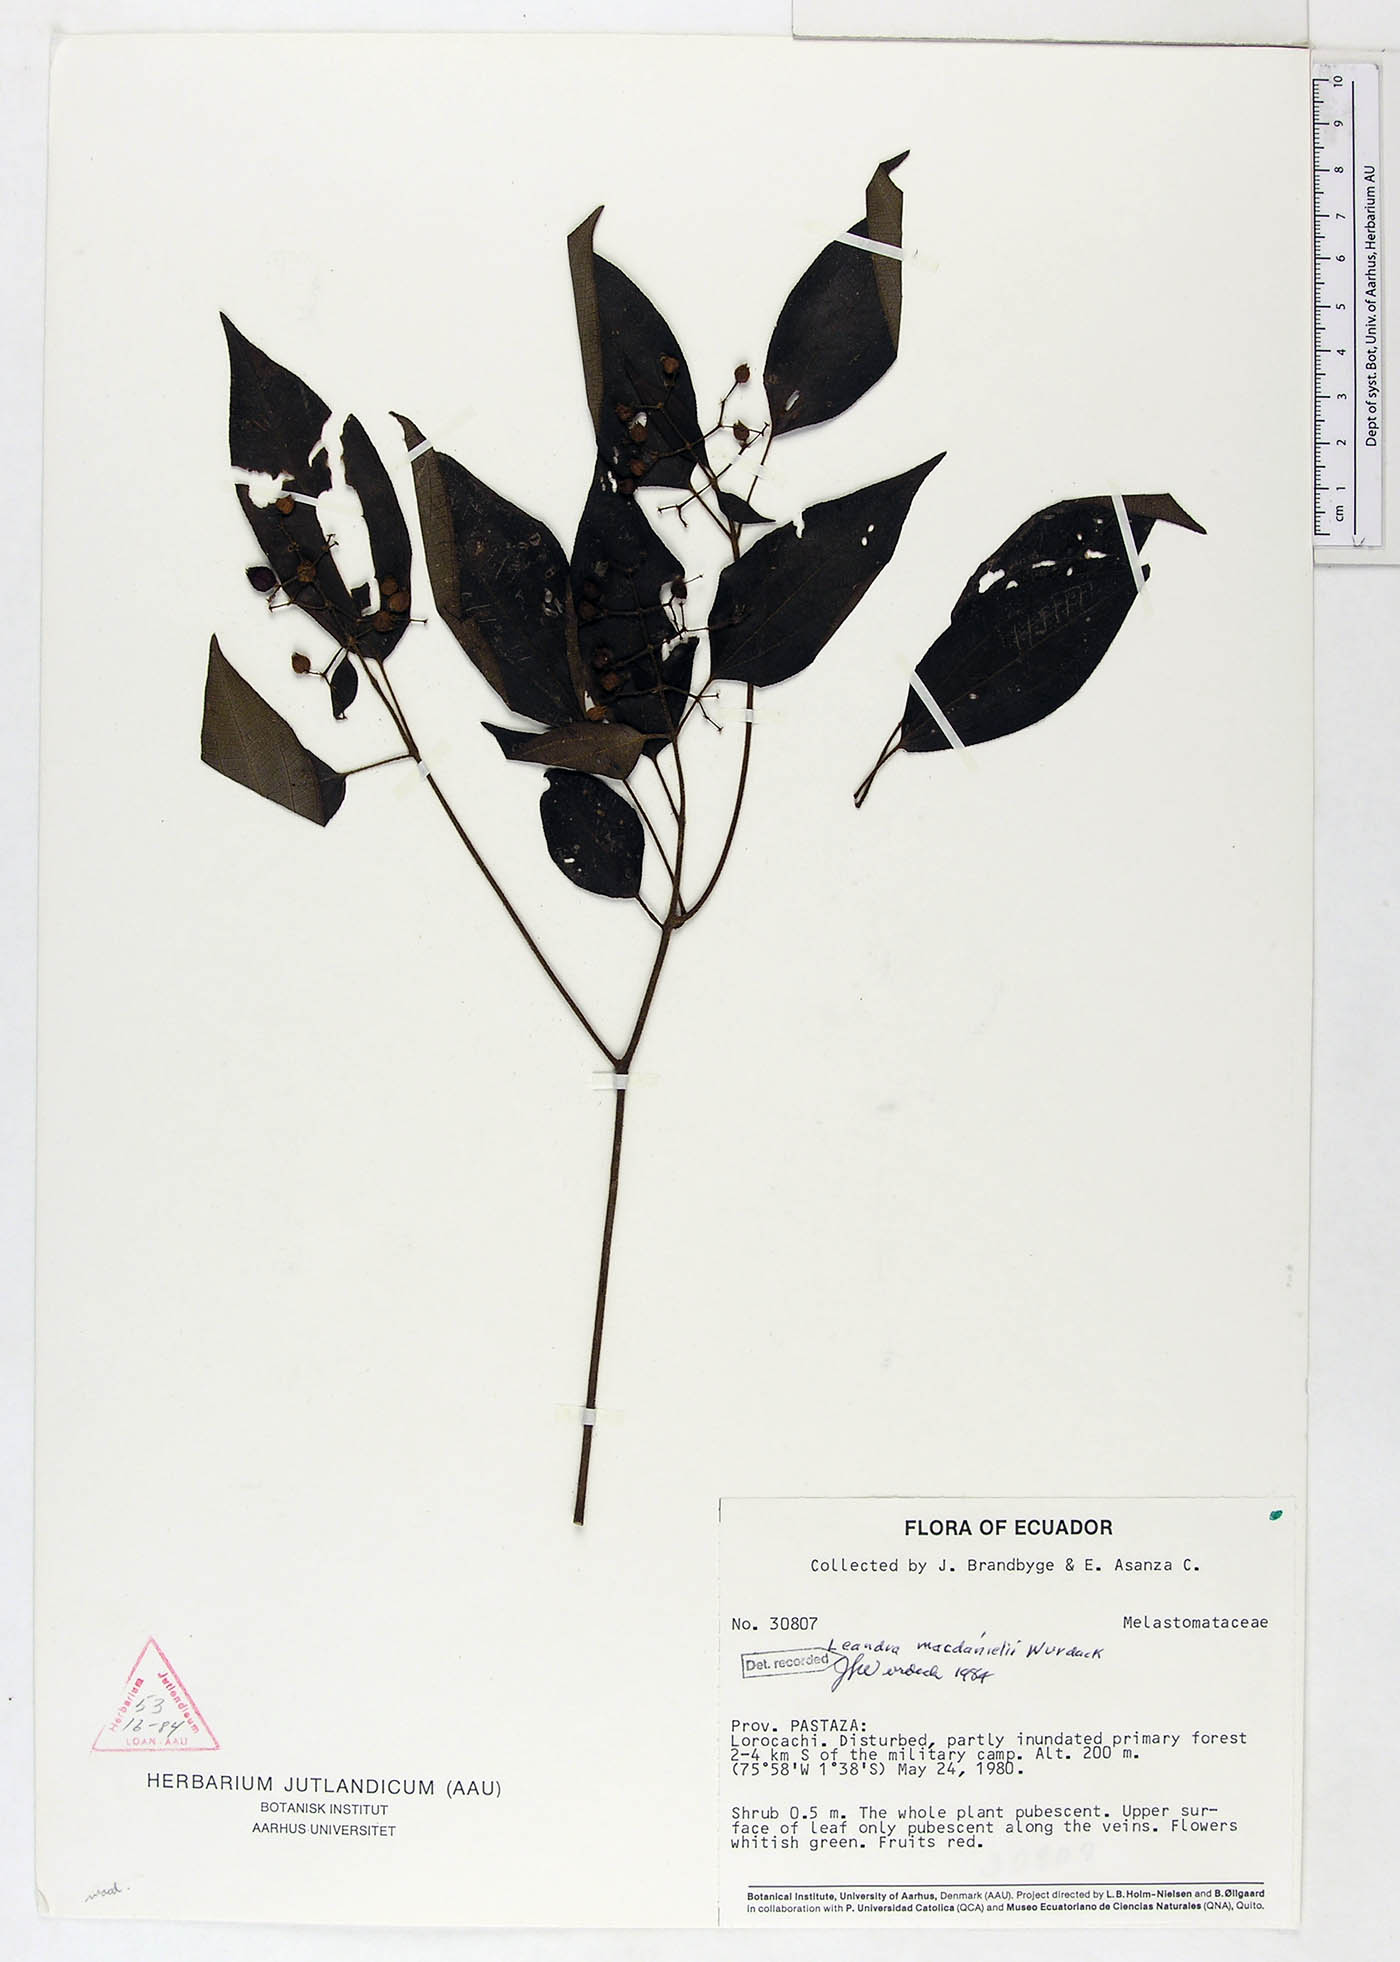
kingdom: Plantae
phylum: Tracheophyta
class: Magnoliopsida
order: Myrtales
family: Melastomataceae
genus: Miconia
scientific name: Miconia secunmacdanielii
